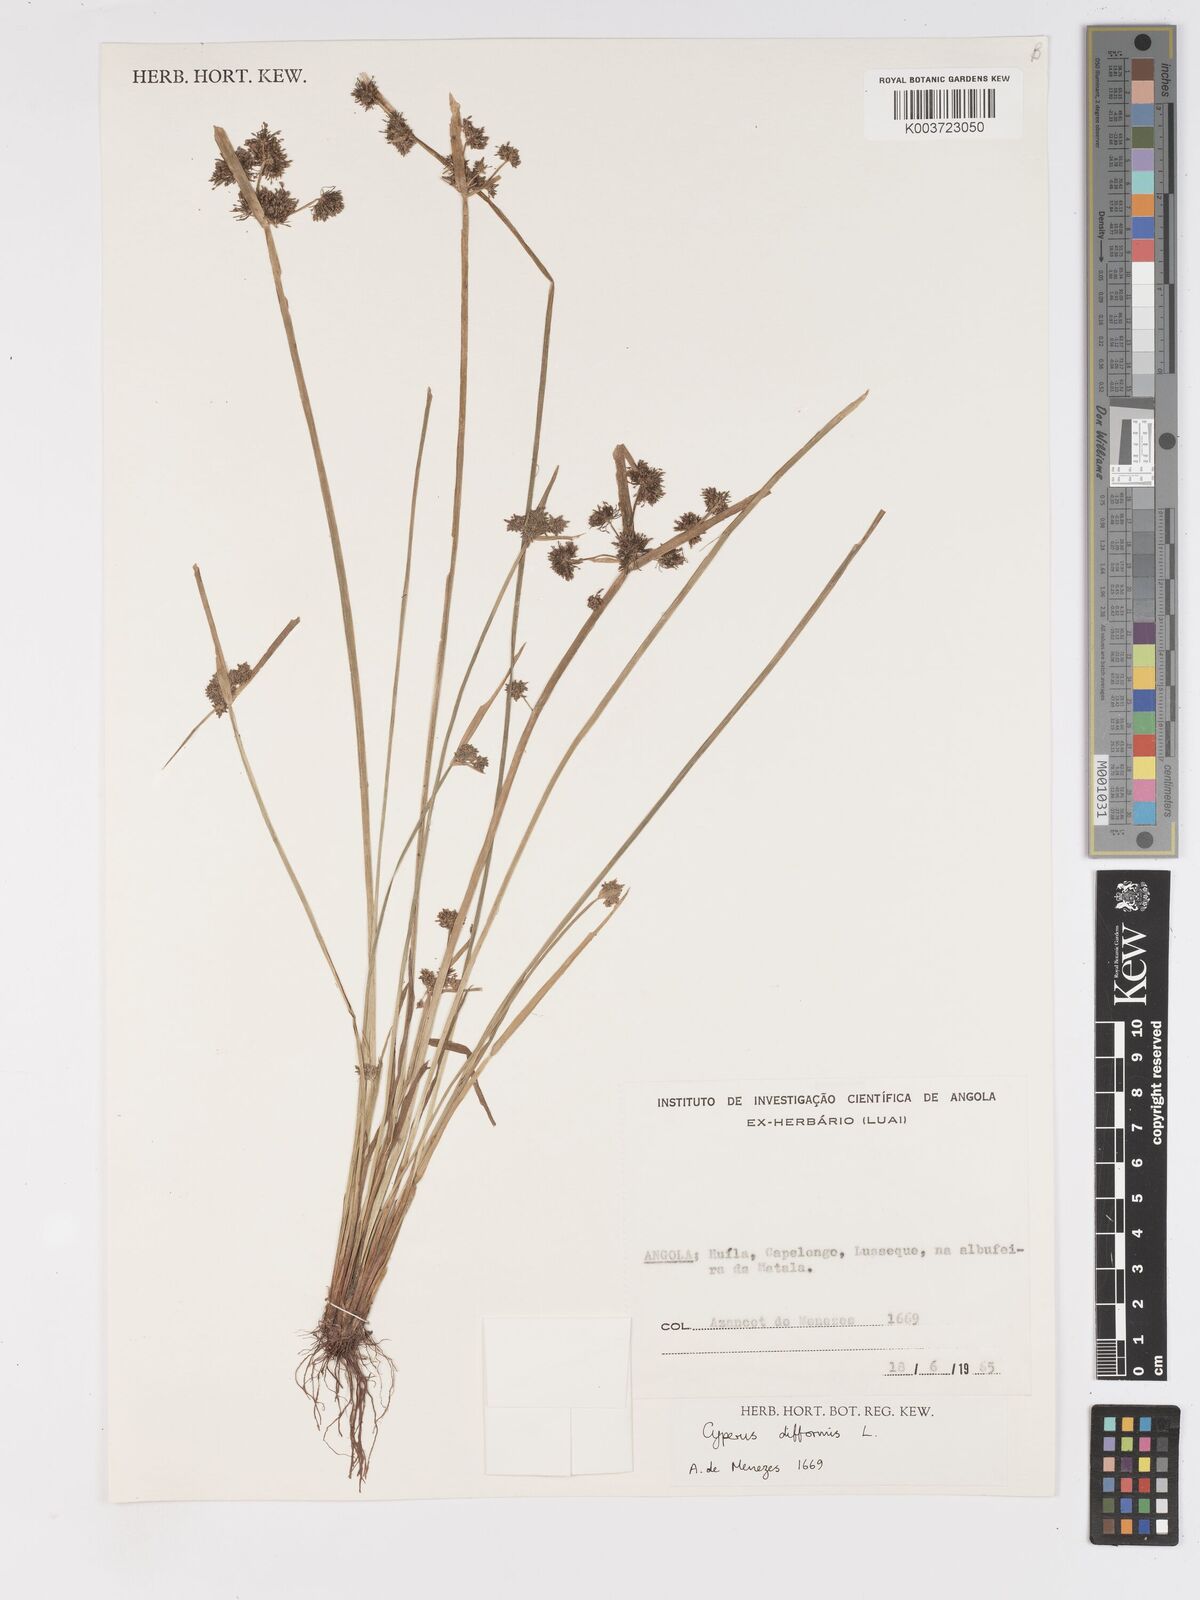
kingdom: Plantae
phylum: Tracheophyta
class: Liliopsida
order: Poales
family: Cyperaceae
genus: Cyperus
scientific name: Cyperus difformis
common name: Variable flatsedge
